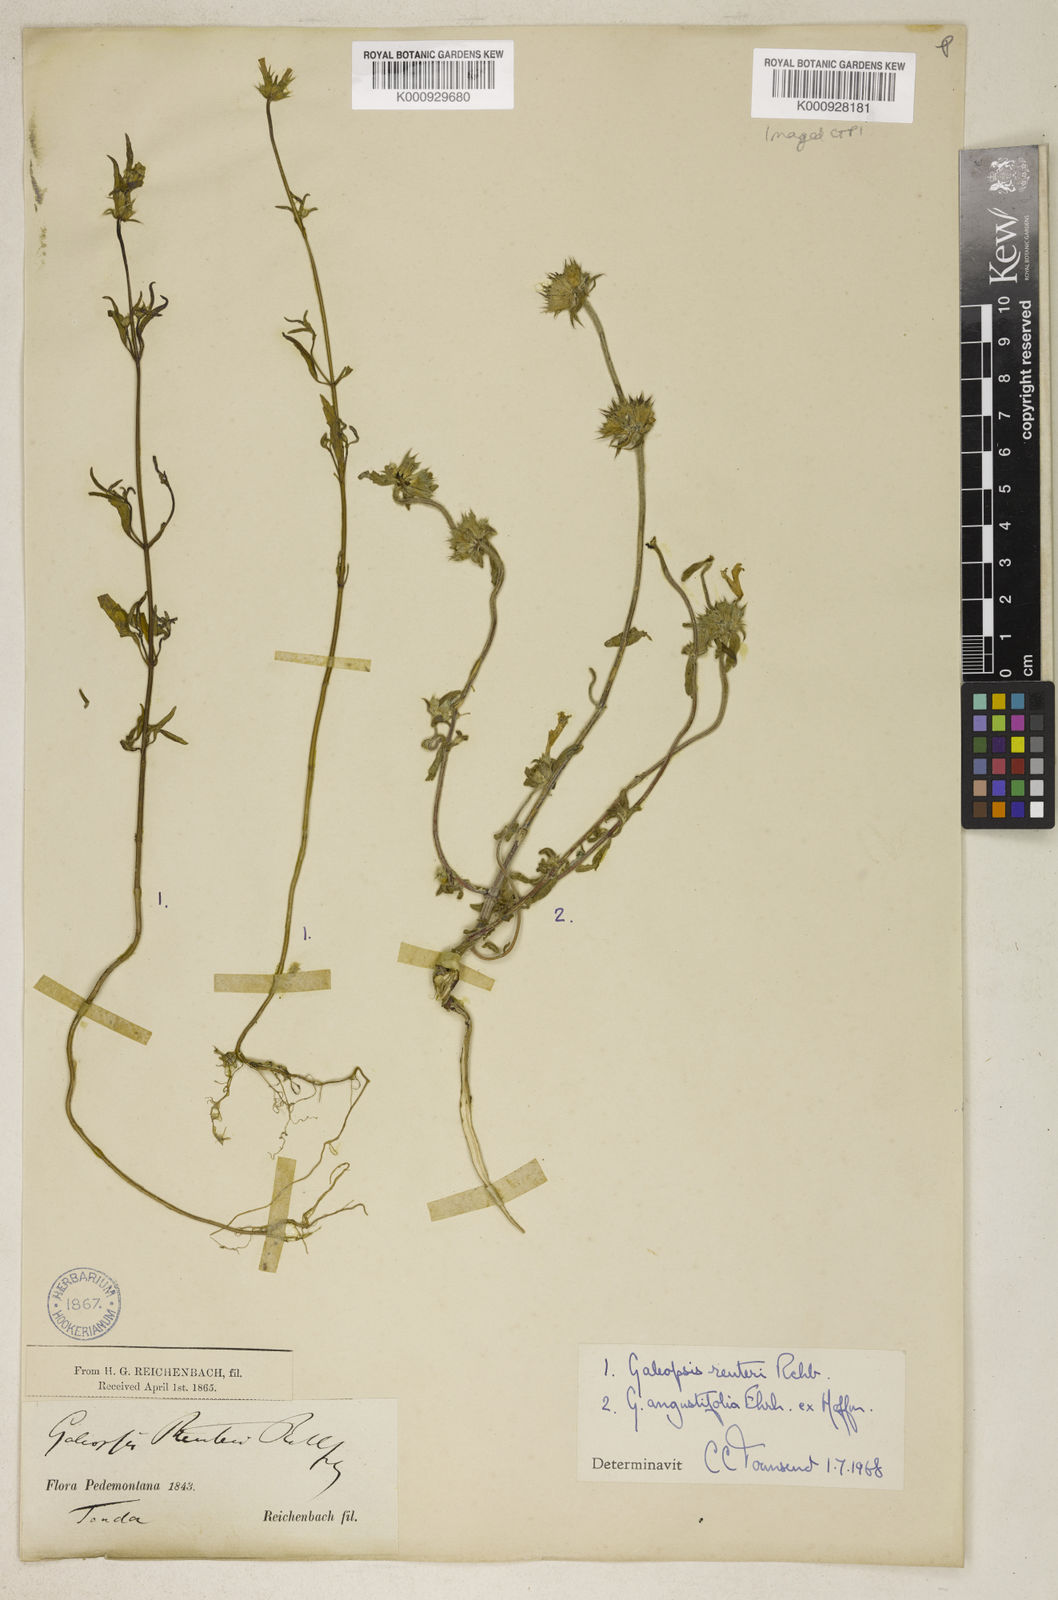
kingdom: Plantae
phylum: Tracheophyta
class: Magnoliopsida
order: Lamiales
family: Lamiaceae
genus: Galeopsis
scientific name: Galeopsis reuteri
